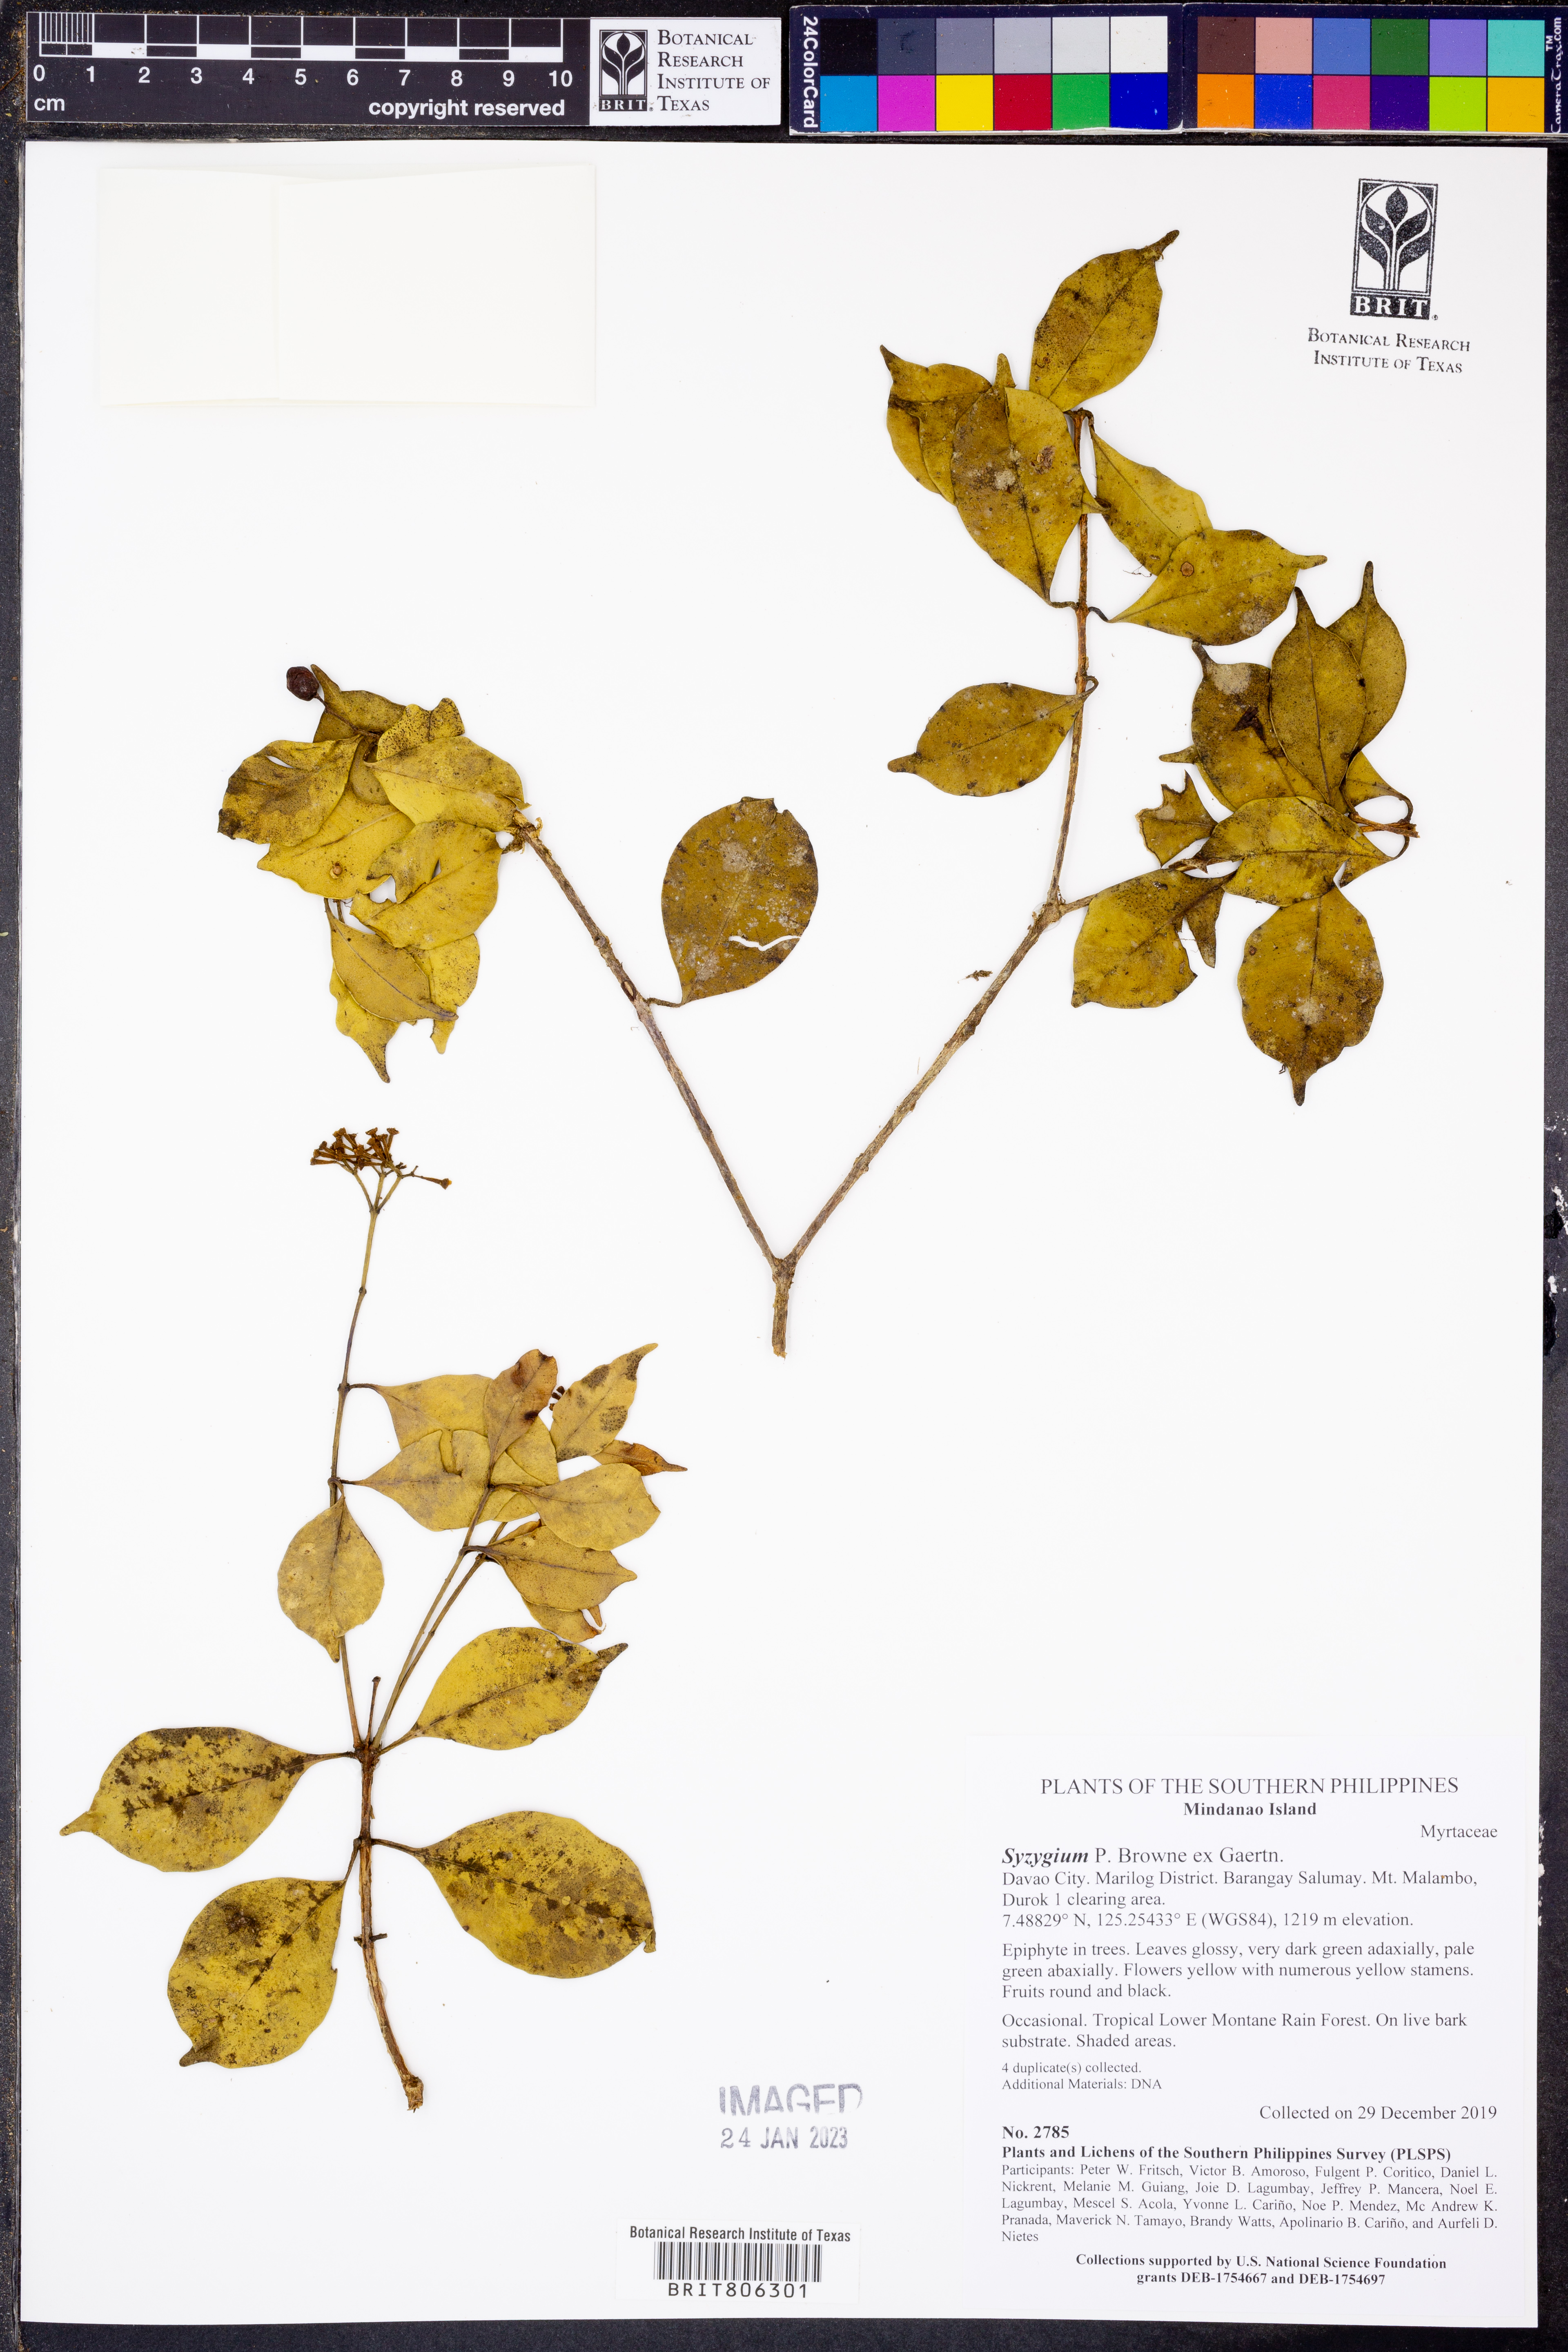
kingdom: Plantae
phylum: Tracheophyta
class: Magnoliopsida
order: Myrtales
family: Myrtaceae
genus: Syzygium
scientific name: Syzygium
